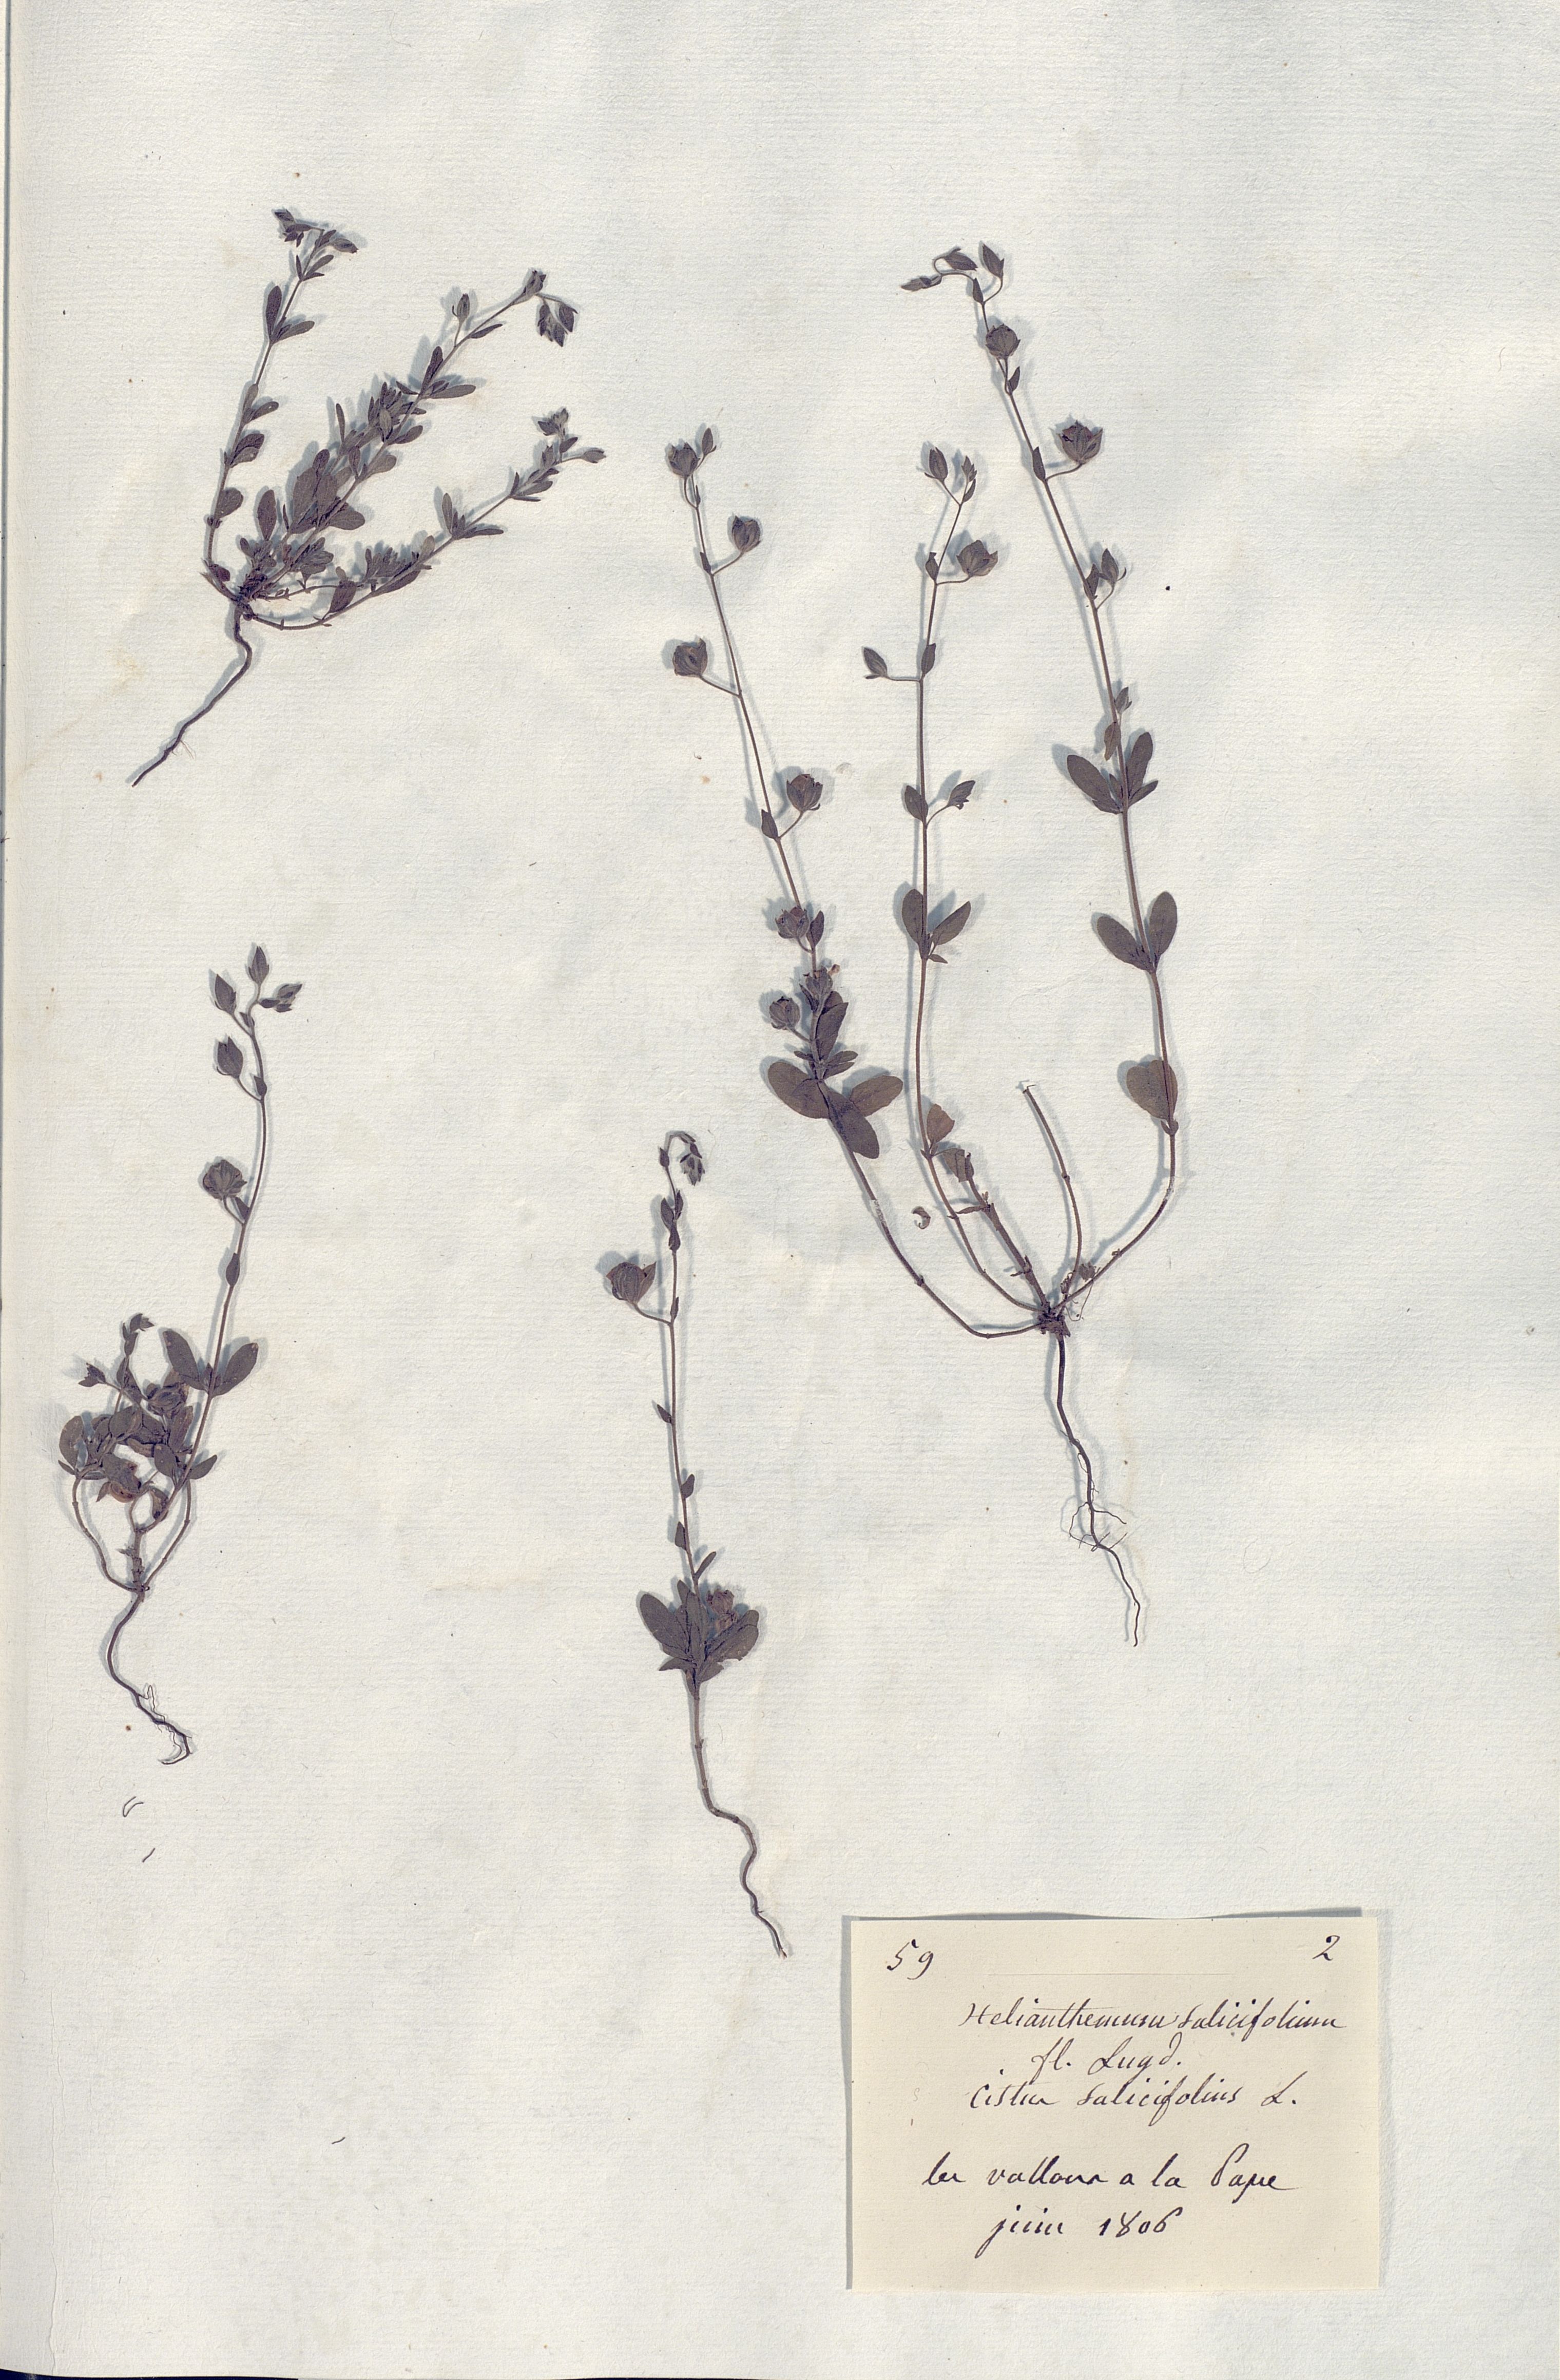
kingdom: Plantae
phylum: Tracheophyta
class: Magnoliopsida
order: Malvales
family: Cistaceae
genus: Helianthemum
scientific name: Helianthemum salicifolium
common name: Willowleaf frostweed
